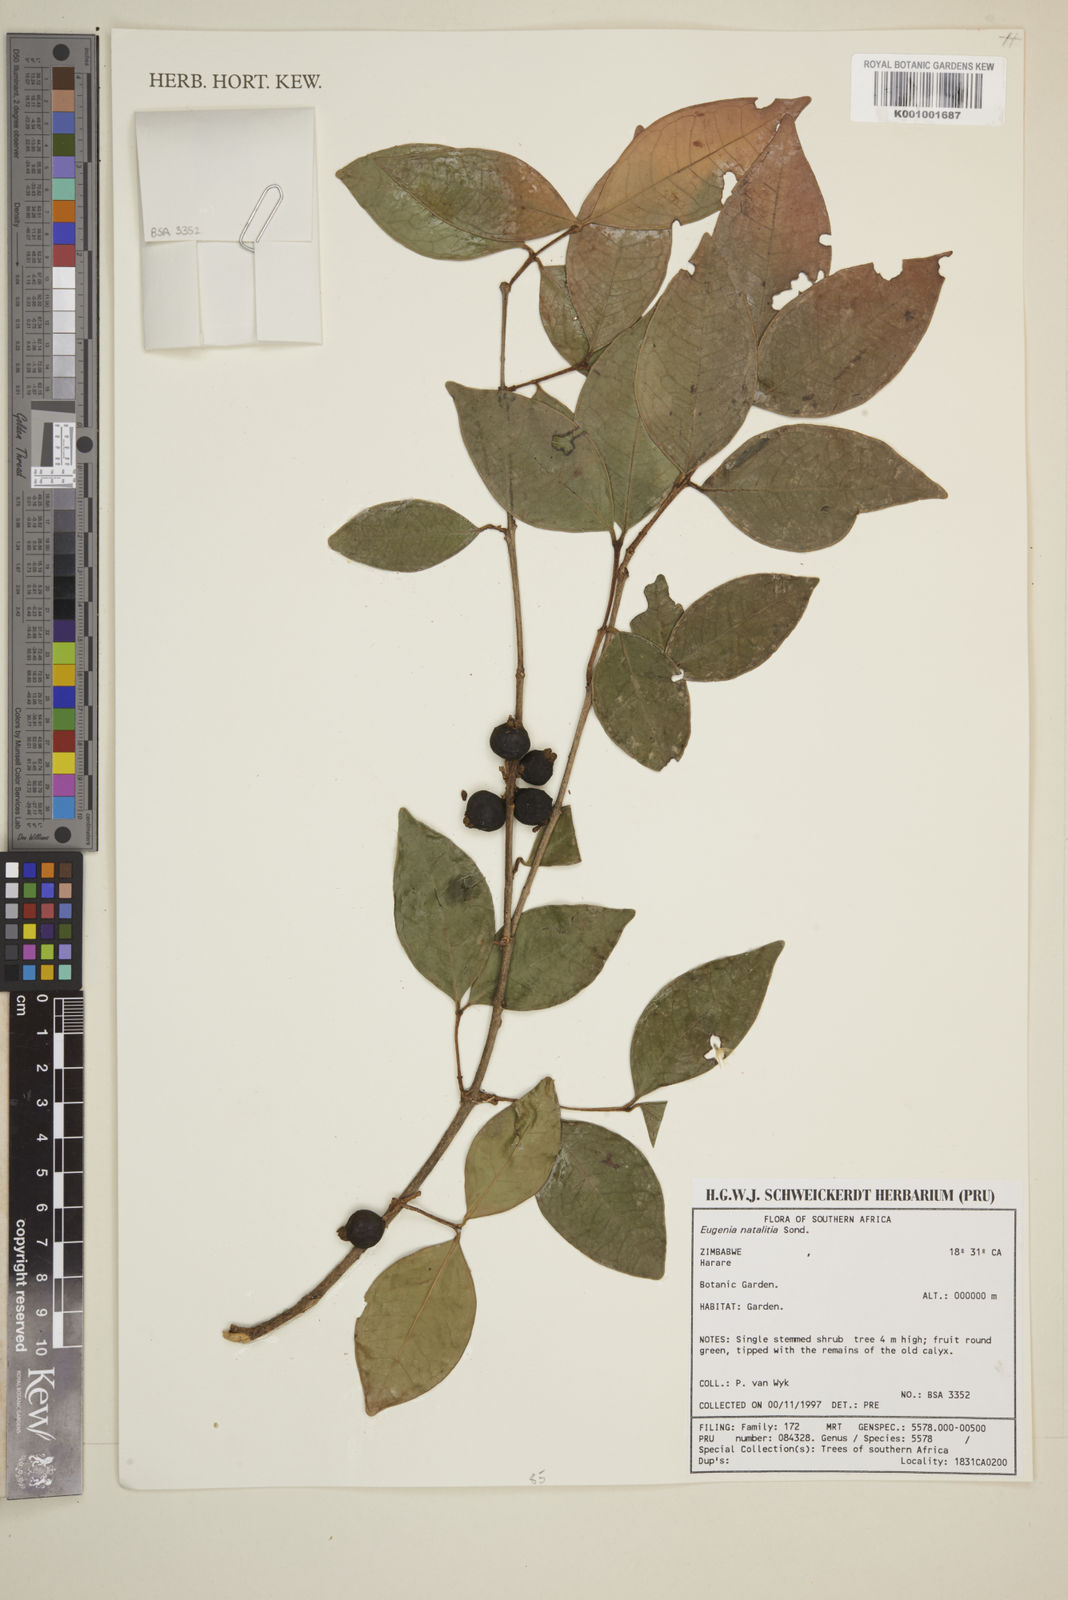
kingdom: Plantae
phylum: Tracheophyta
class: Magnoliopsida
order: Myrtales
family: Myrtaceae
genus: Eugenia
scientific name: Eugenia natalitia
